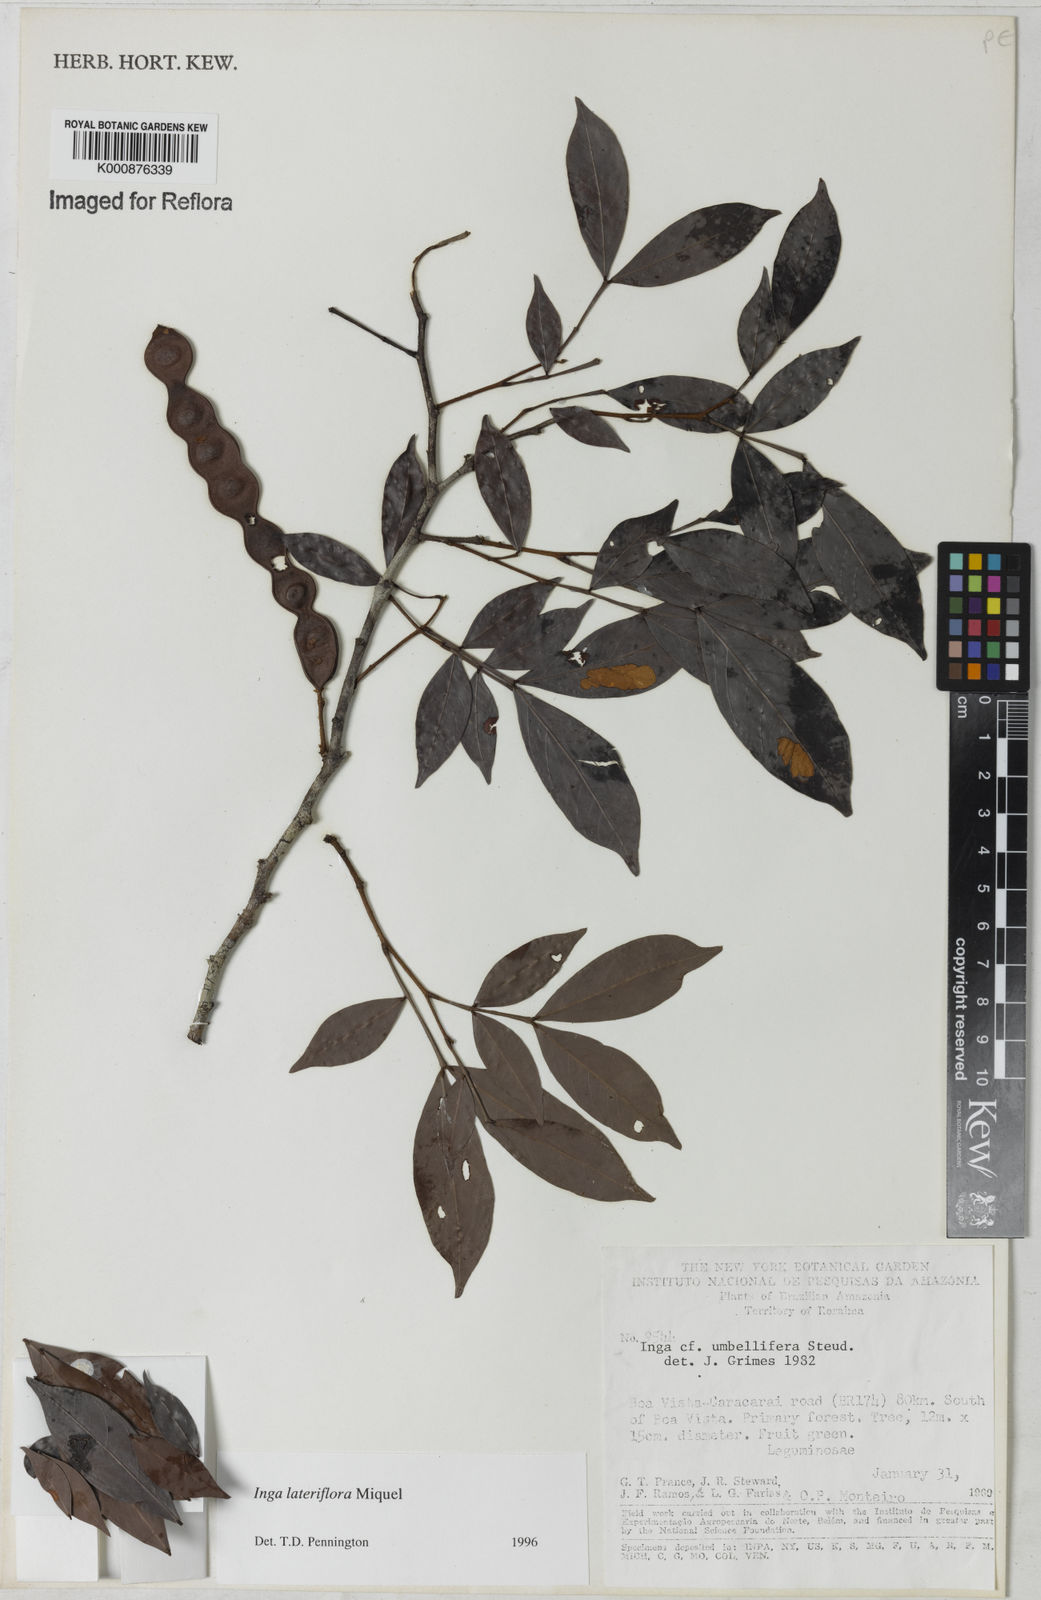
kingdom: Plantae
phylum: Tracheophyta
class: Magnoliopsida
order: Fabales
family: Fabaceae
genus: Inga
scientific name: Inga lateriflora
